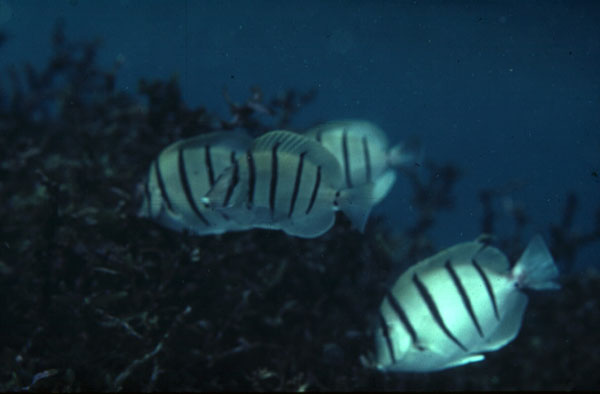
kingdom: Animalia
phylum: Chordata
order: Perciformes
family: Acanthuridae
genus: Acanthurus
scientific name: Acanthurus triostegus
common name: Convict surgeonfish
